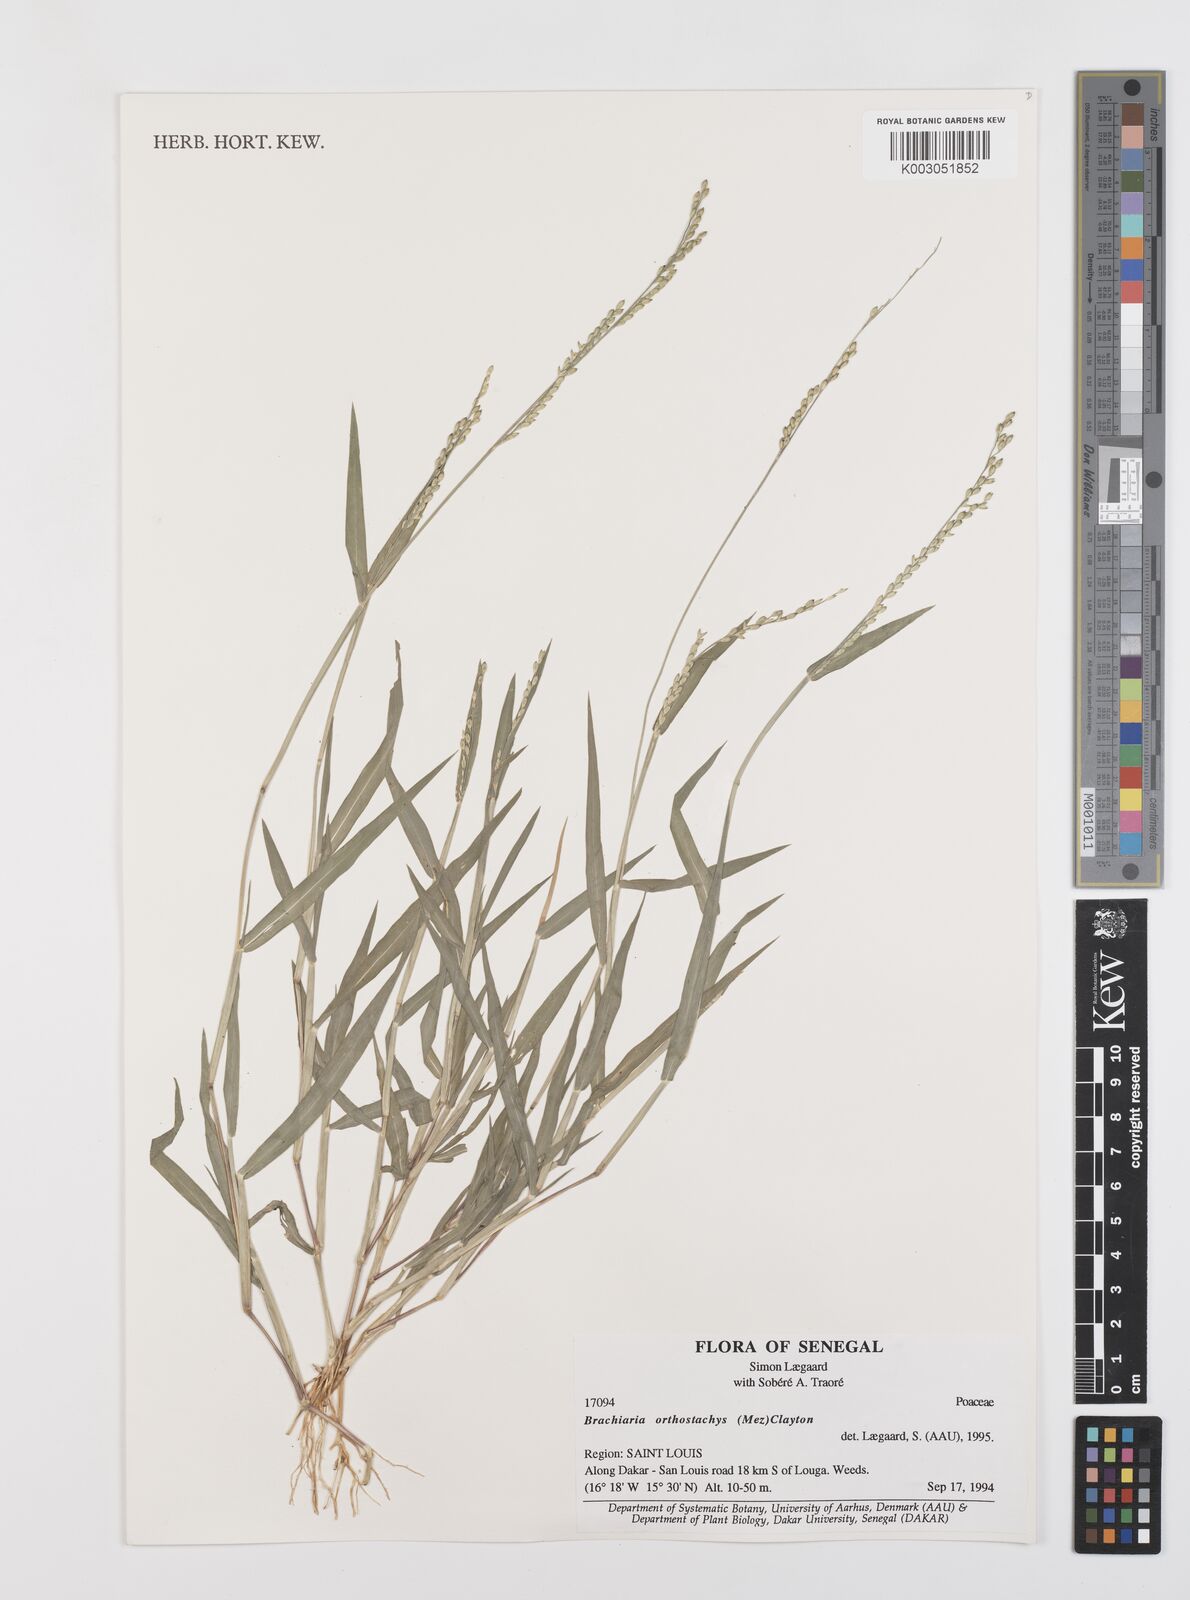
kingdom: Plantae
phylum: Tracheophyta
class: Liliopsida
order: Poales
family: Poaceae
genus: Urochloa
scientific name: Urochloa orthostachys
